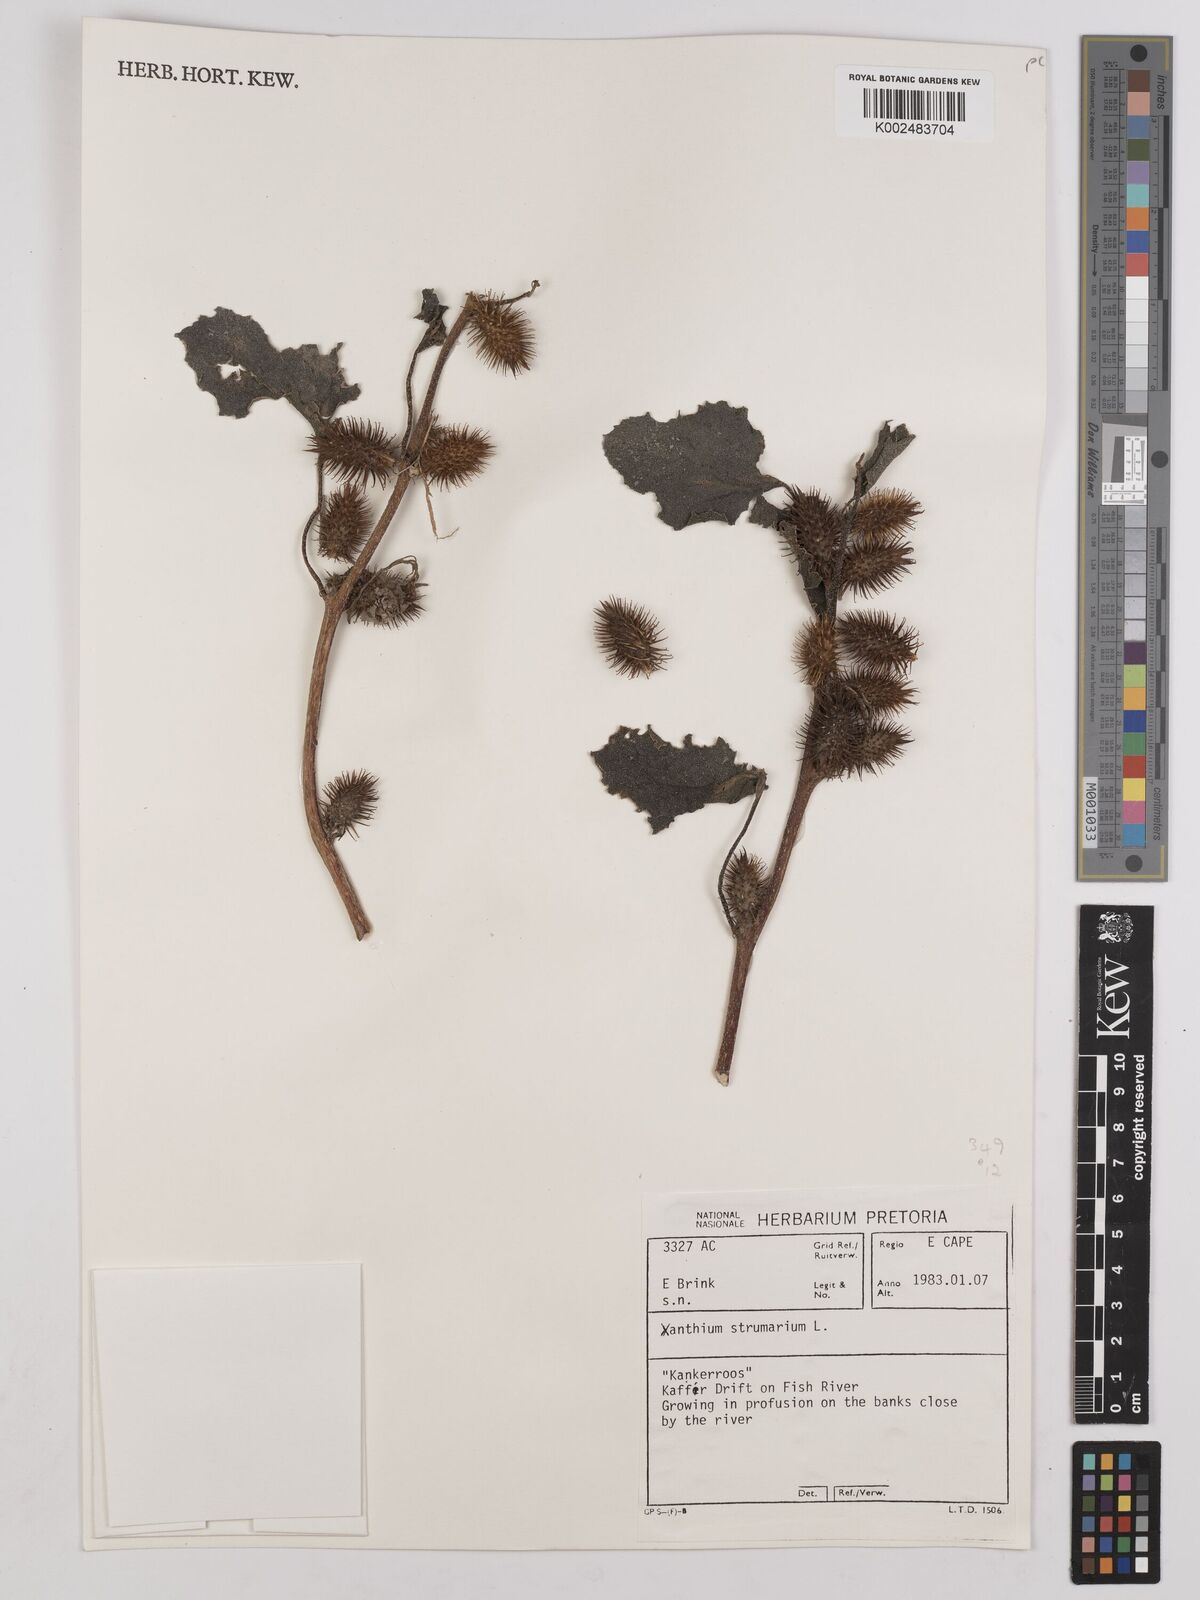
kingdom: Plantae
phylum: Tracheophyta
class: Magnoliopsida
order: Asterales
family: Asteraceae
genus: Xanthium
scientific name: Xanthium strumarium
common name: Rough cocklebur
